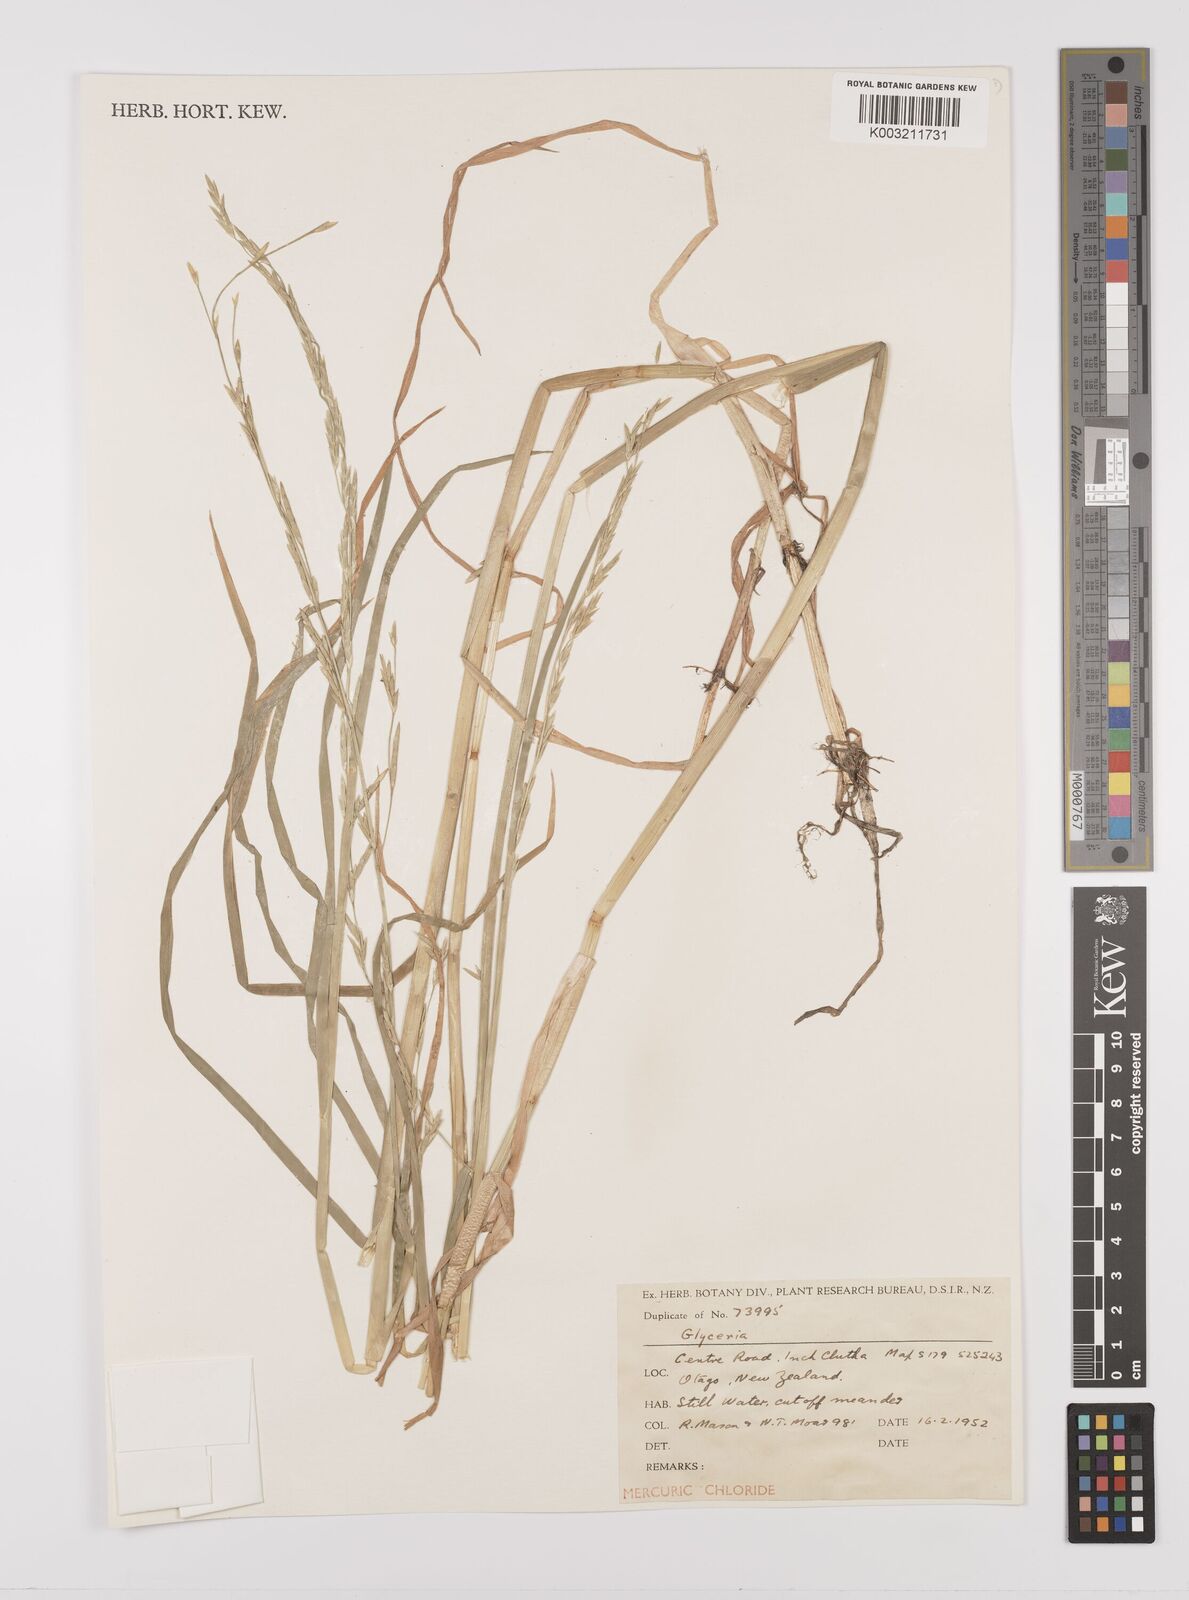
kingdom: Plantae
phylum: Tracheophyta
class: Liliopsida
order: Poales
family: Poaceae
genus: Glyceria
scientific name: Glyceria
